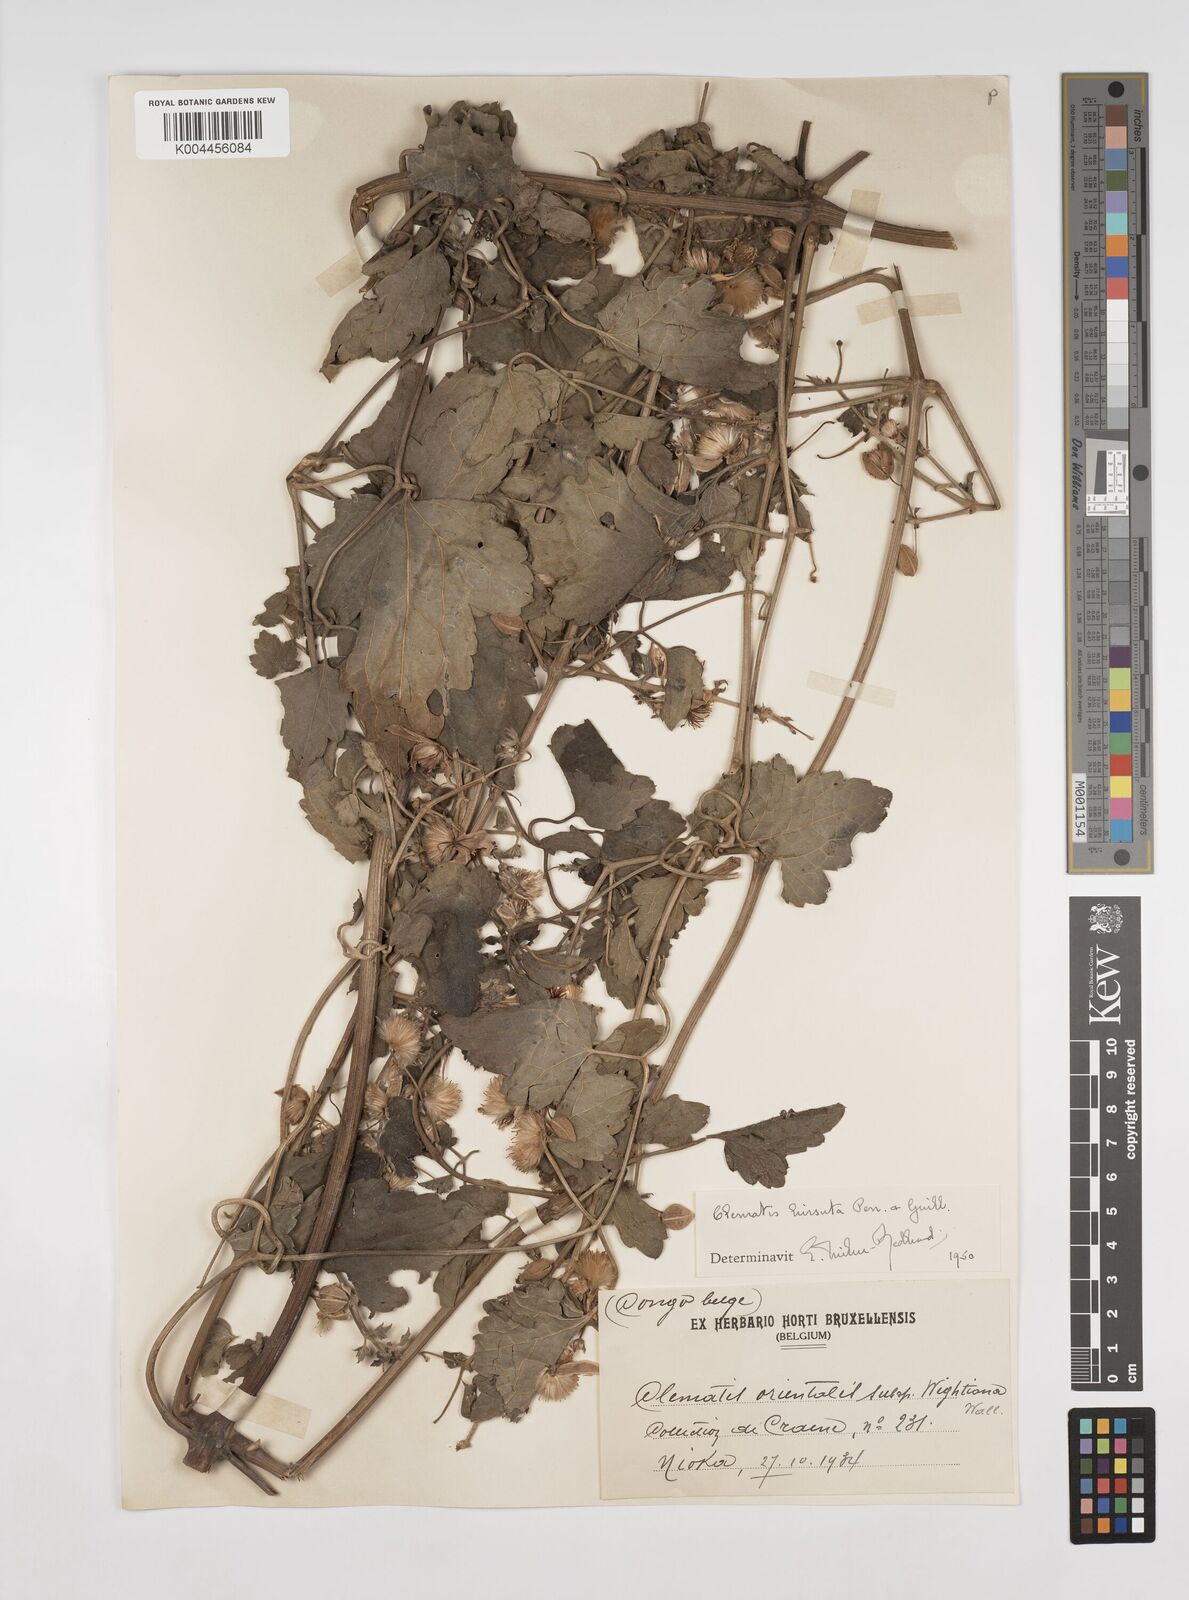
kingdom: Plantae
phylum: Tracheophyta
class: Magnoliopsida
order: Ranunculales
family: Ranunculaceae
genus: Clematis
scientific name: Clematis orientalis
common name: Oriental virgin's-bower
